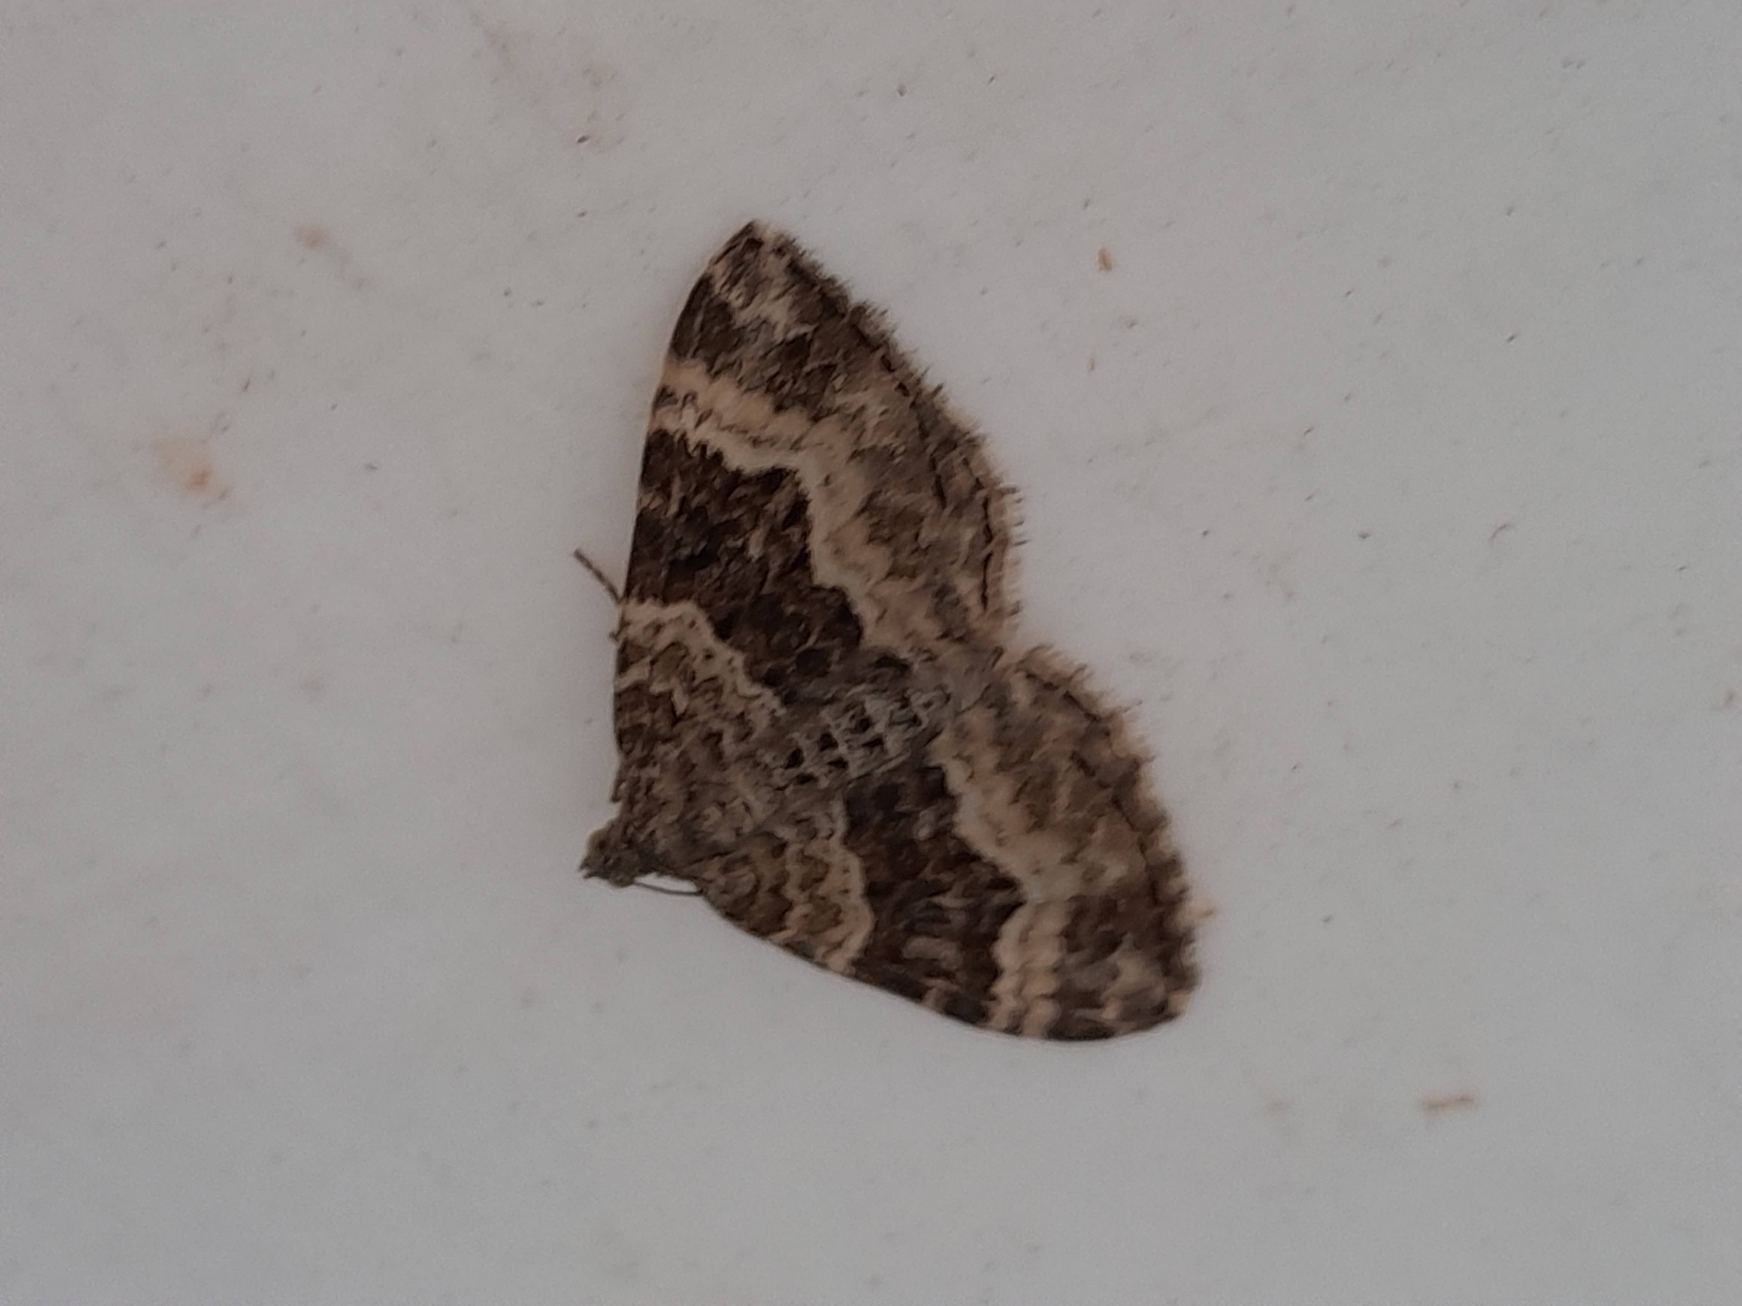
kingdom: Animalia
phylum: Arthropoda
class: Insecta
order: Lepidoptera
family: Geometridae
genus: Epirrhoe
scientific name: Epirrhoe alternata
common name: Almindelig bladmåler
